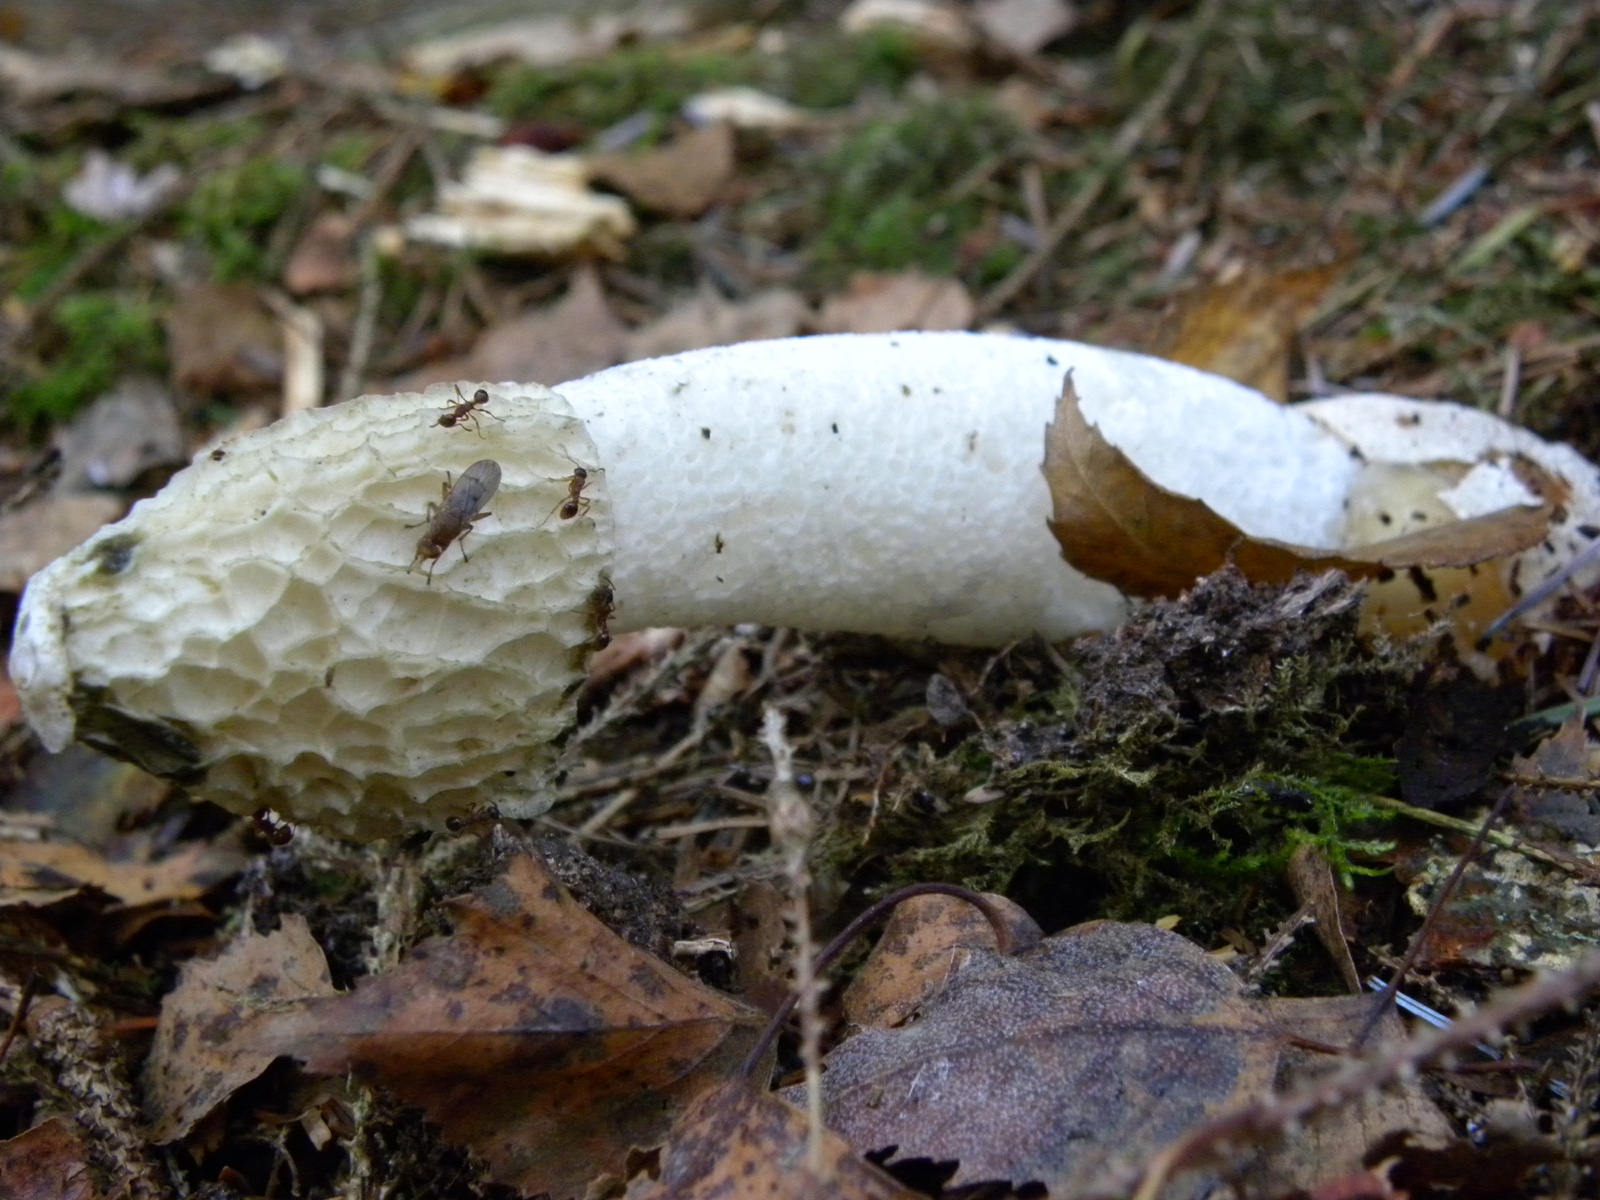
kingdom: Fungi
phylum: Basidiomycota
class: Agaricomycetes
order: Phallales
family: Phallaceae
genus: Phallus
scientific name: Phallus impudicus
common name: almindelig stinksvamp
